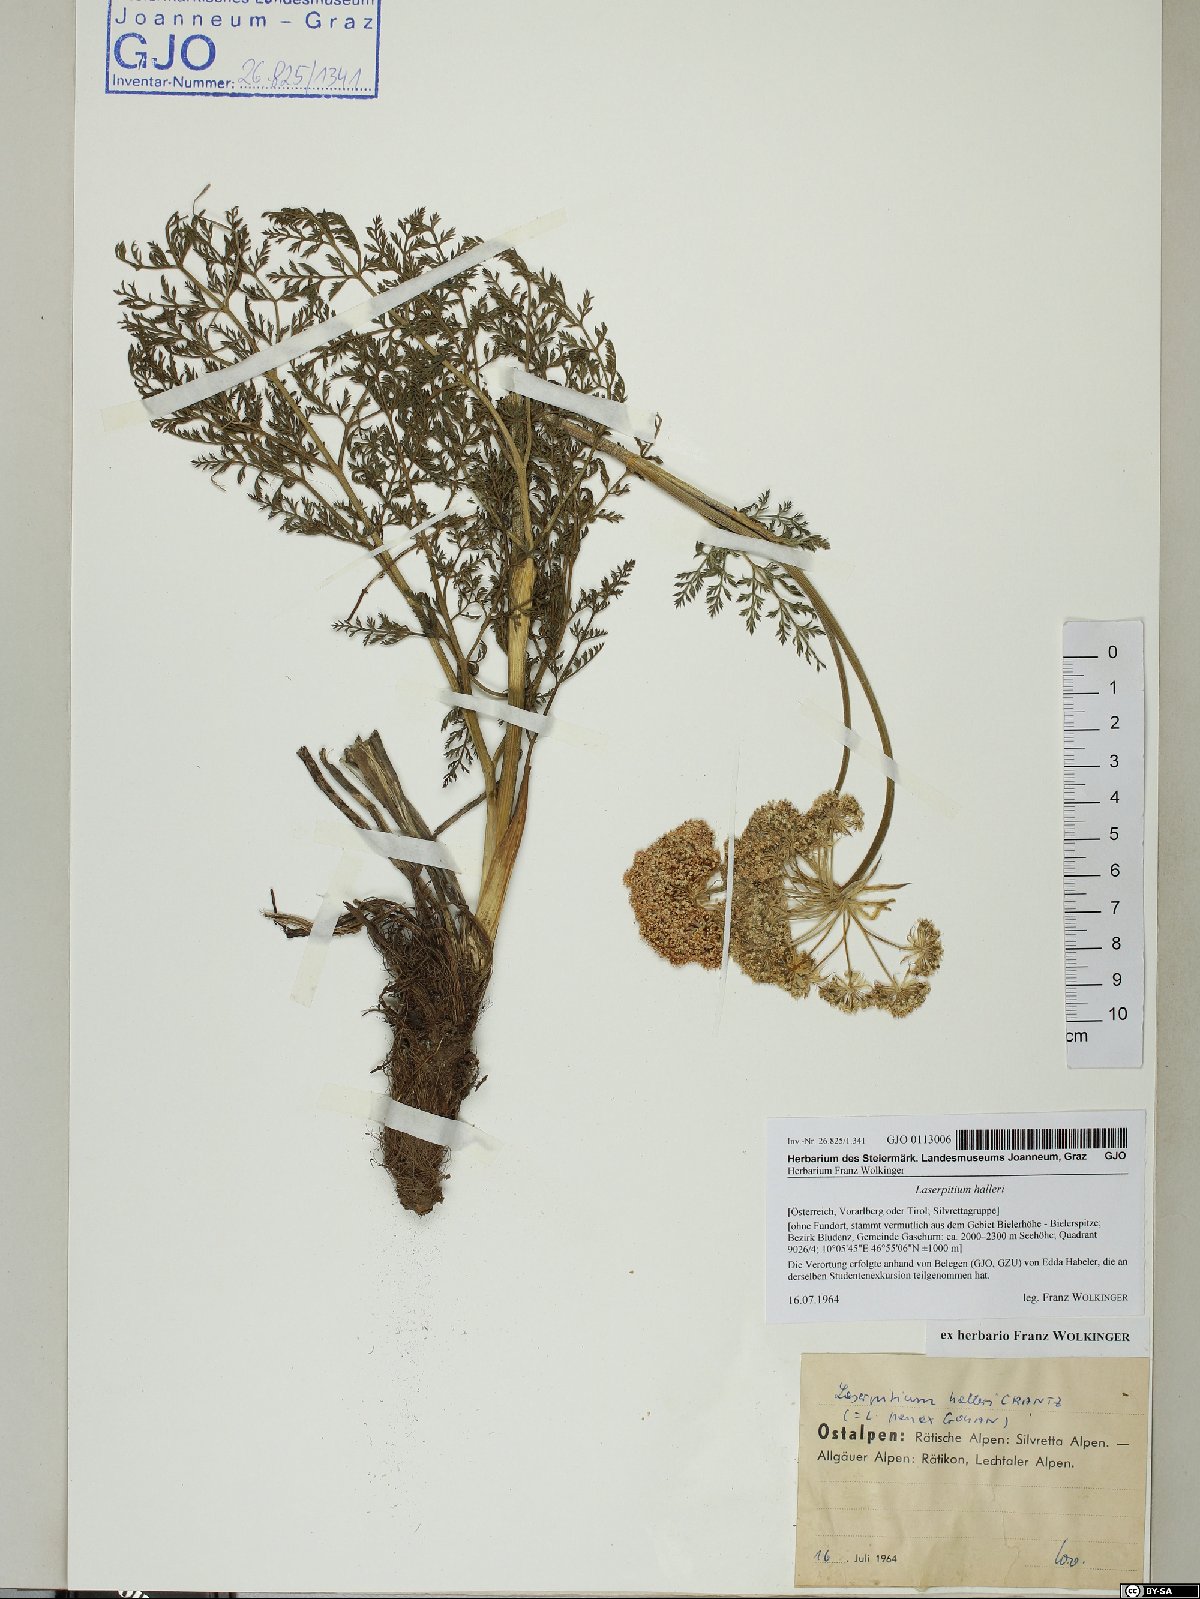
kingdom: Plantae
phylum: Tracheophyta
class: Magnoliopsida
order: Apiales
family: Apiaceae
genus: Laserpitium
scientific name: Laserpitium halleri
